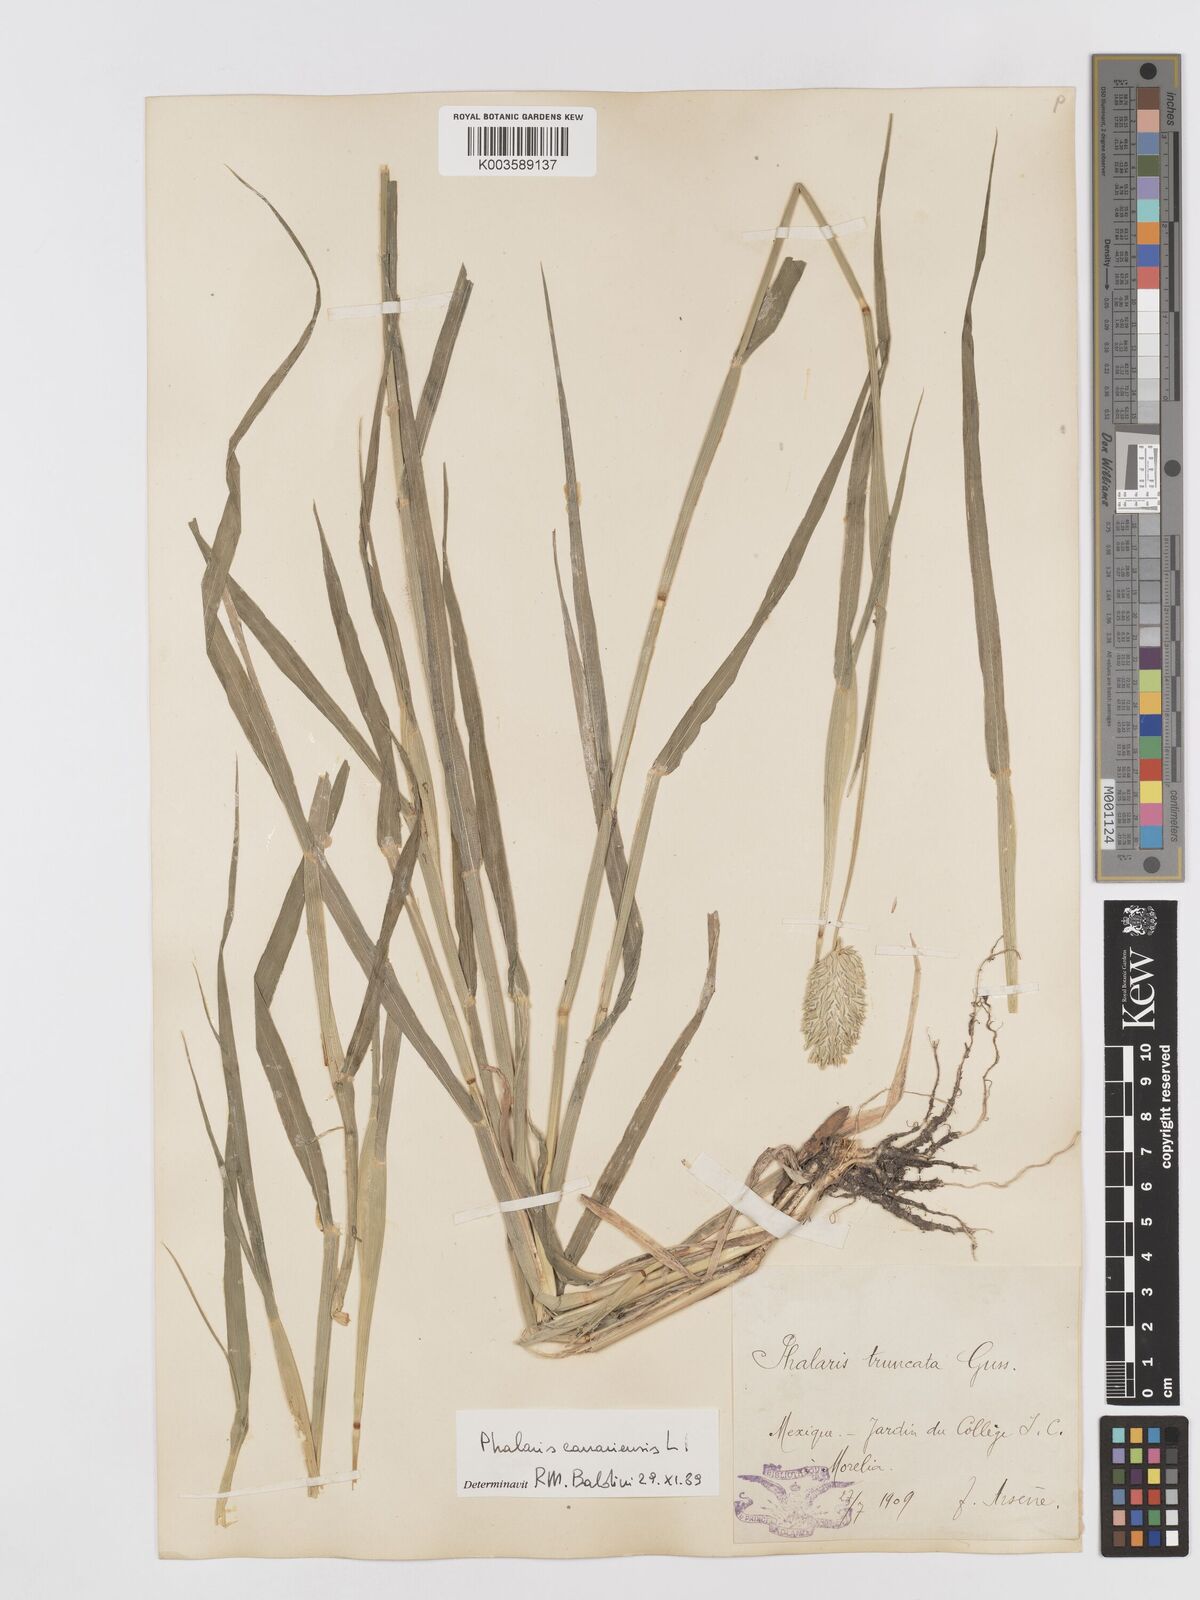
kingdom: Plantae
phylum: Tracheophyta
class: Liliopsida
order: Poales
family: Poaceae
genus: Phalaris
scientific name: Phalaris canariensis
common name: Annual canarygrass
